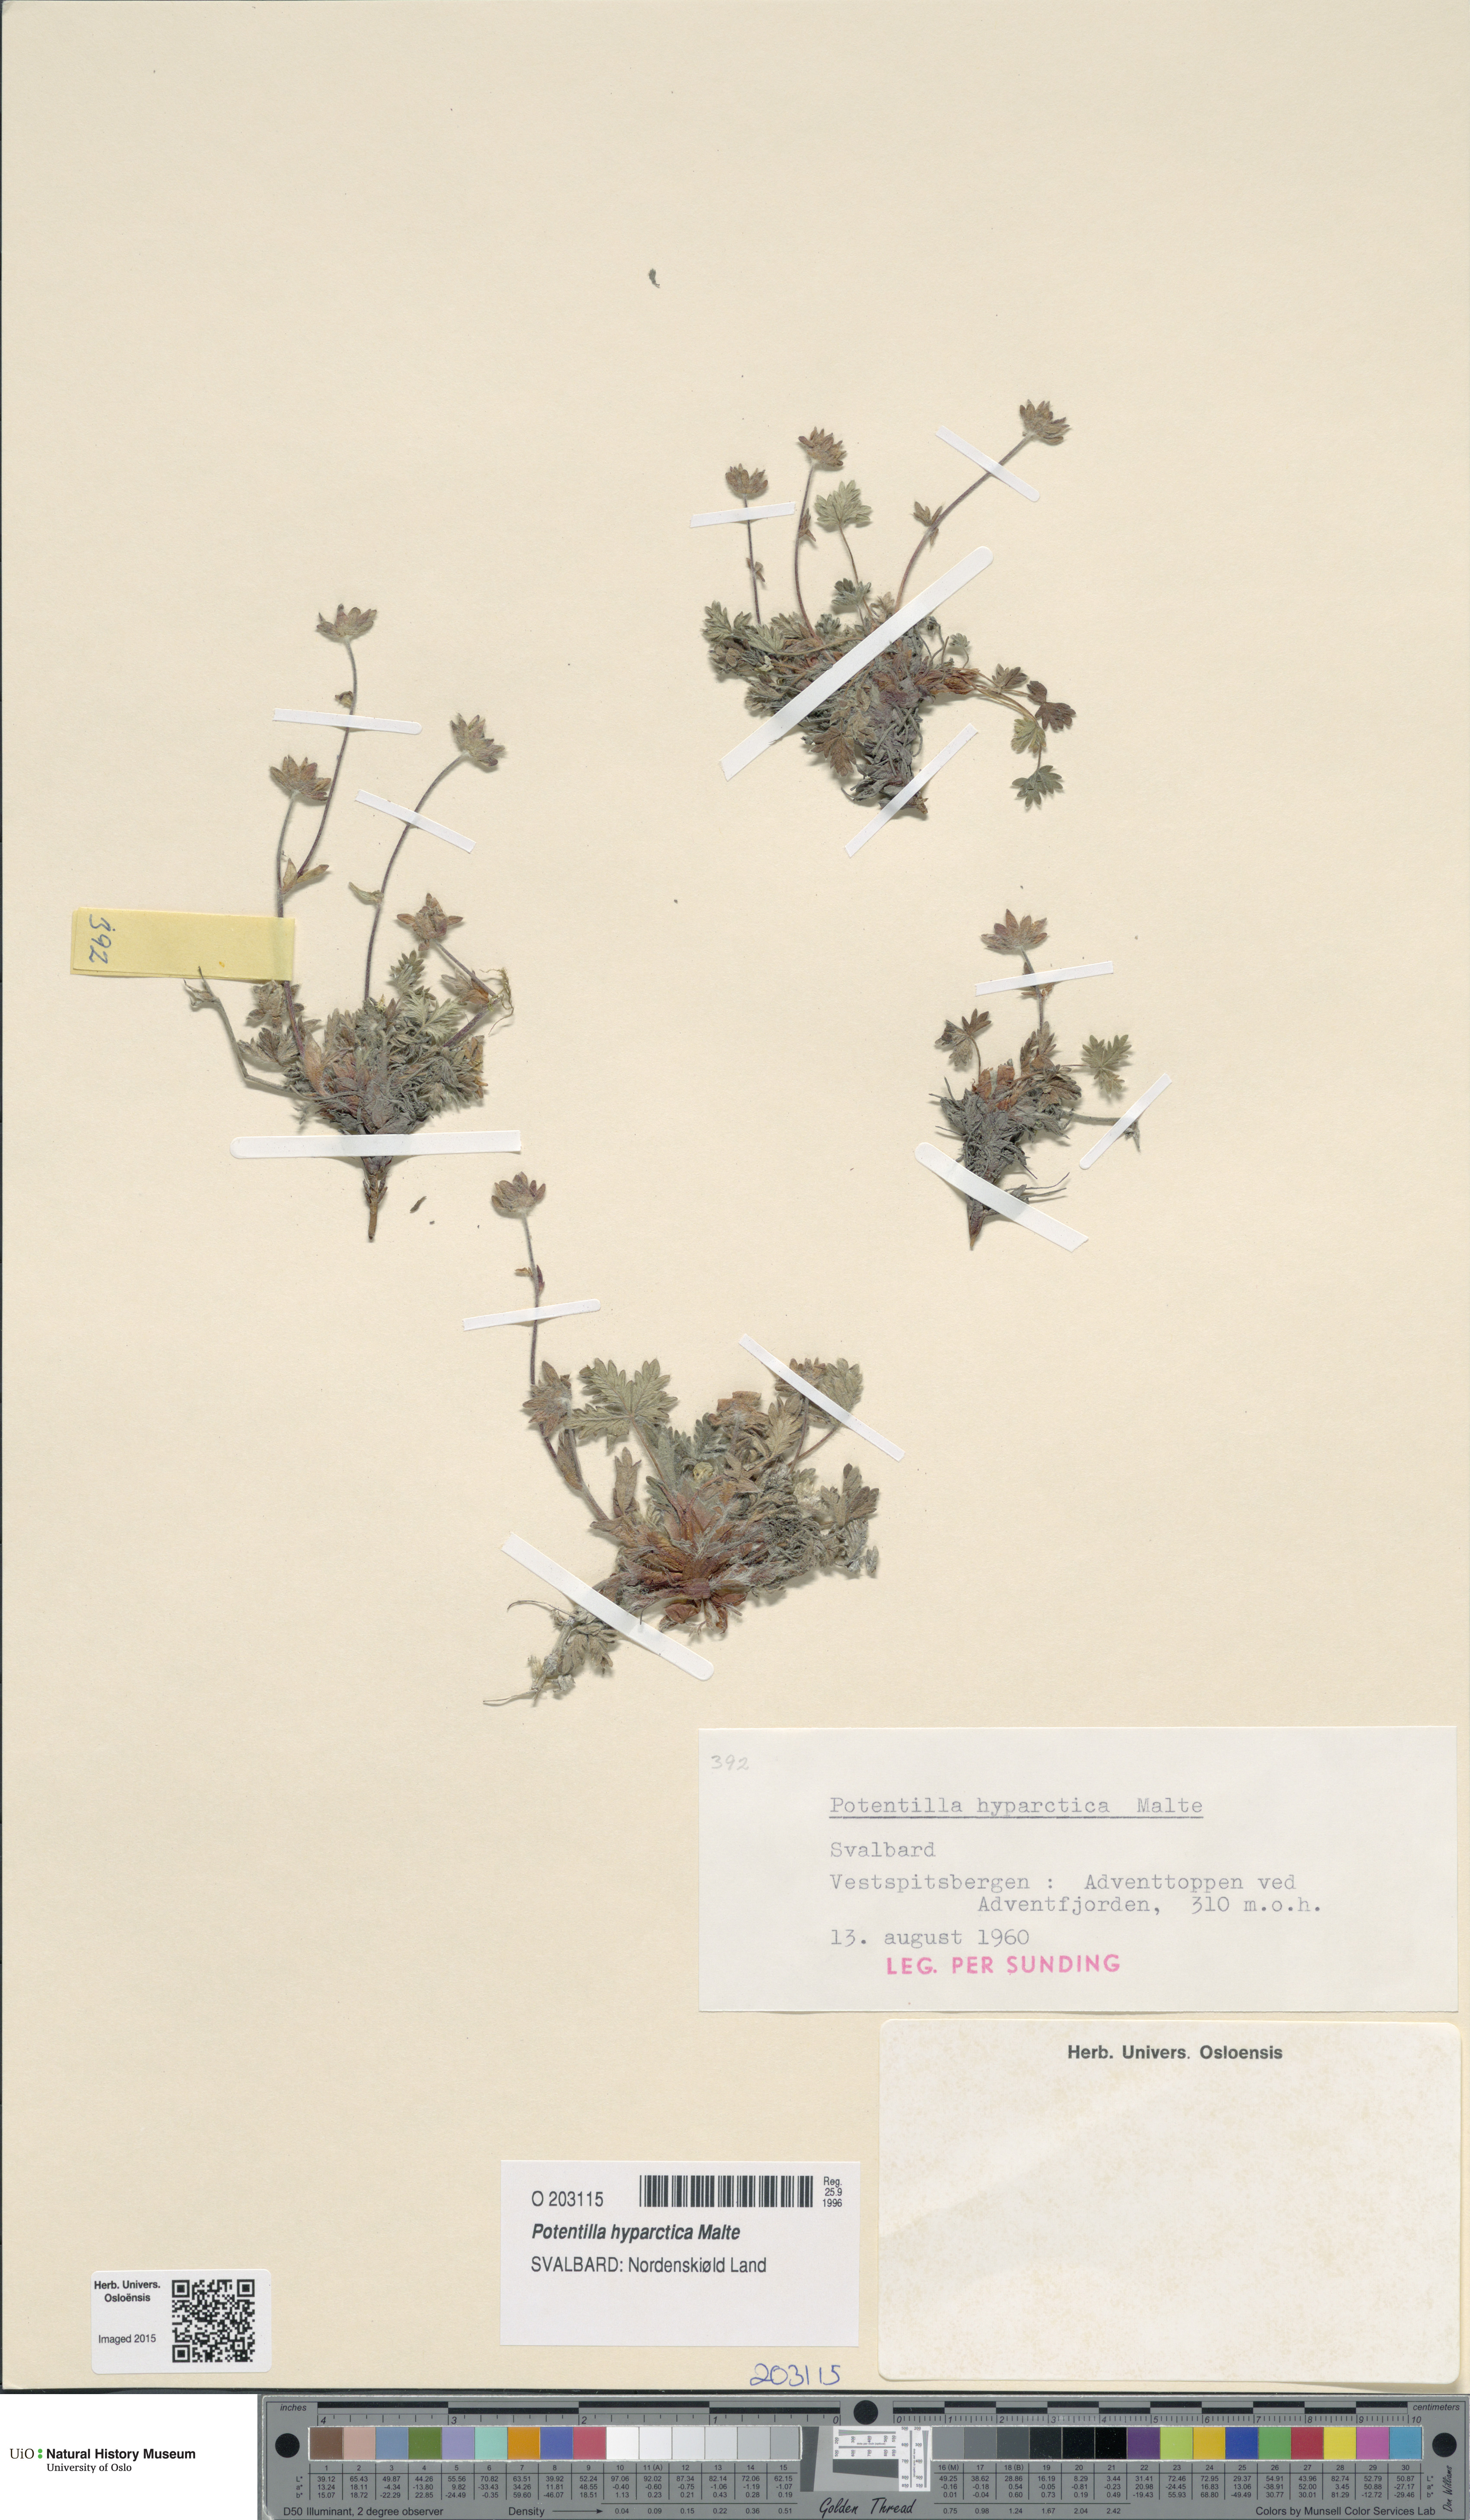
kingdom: Plantae
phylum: Tracheophyta
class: Magnoliopsida
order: Rosales
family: Rosaceae
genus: Potentilla
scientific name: Potentilla hyparctica
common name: Arctic cinquefoil
